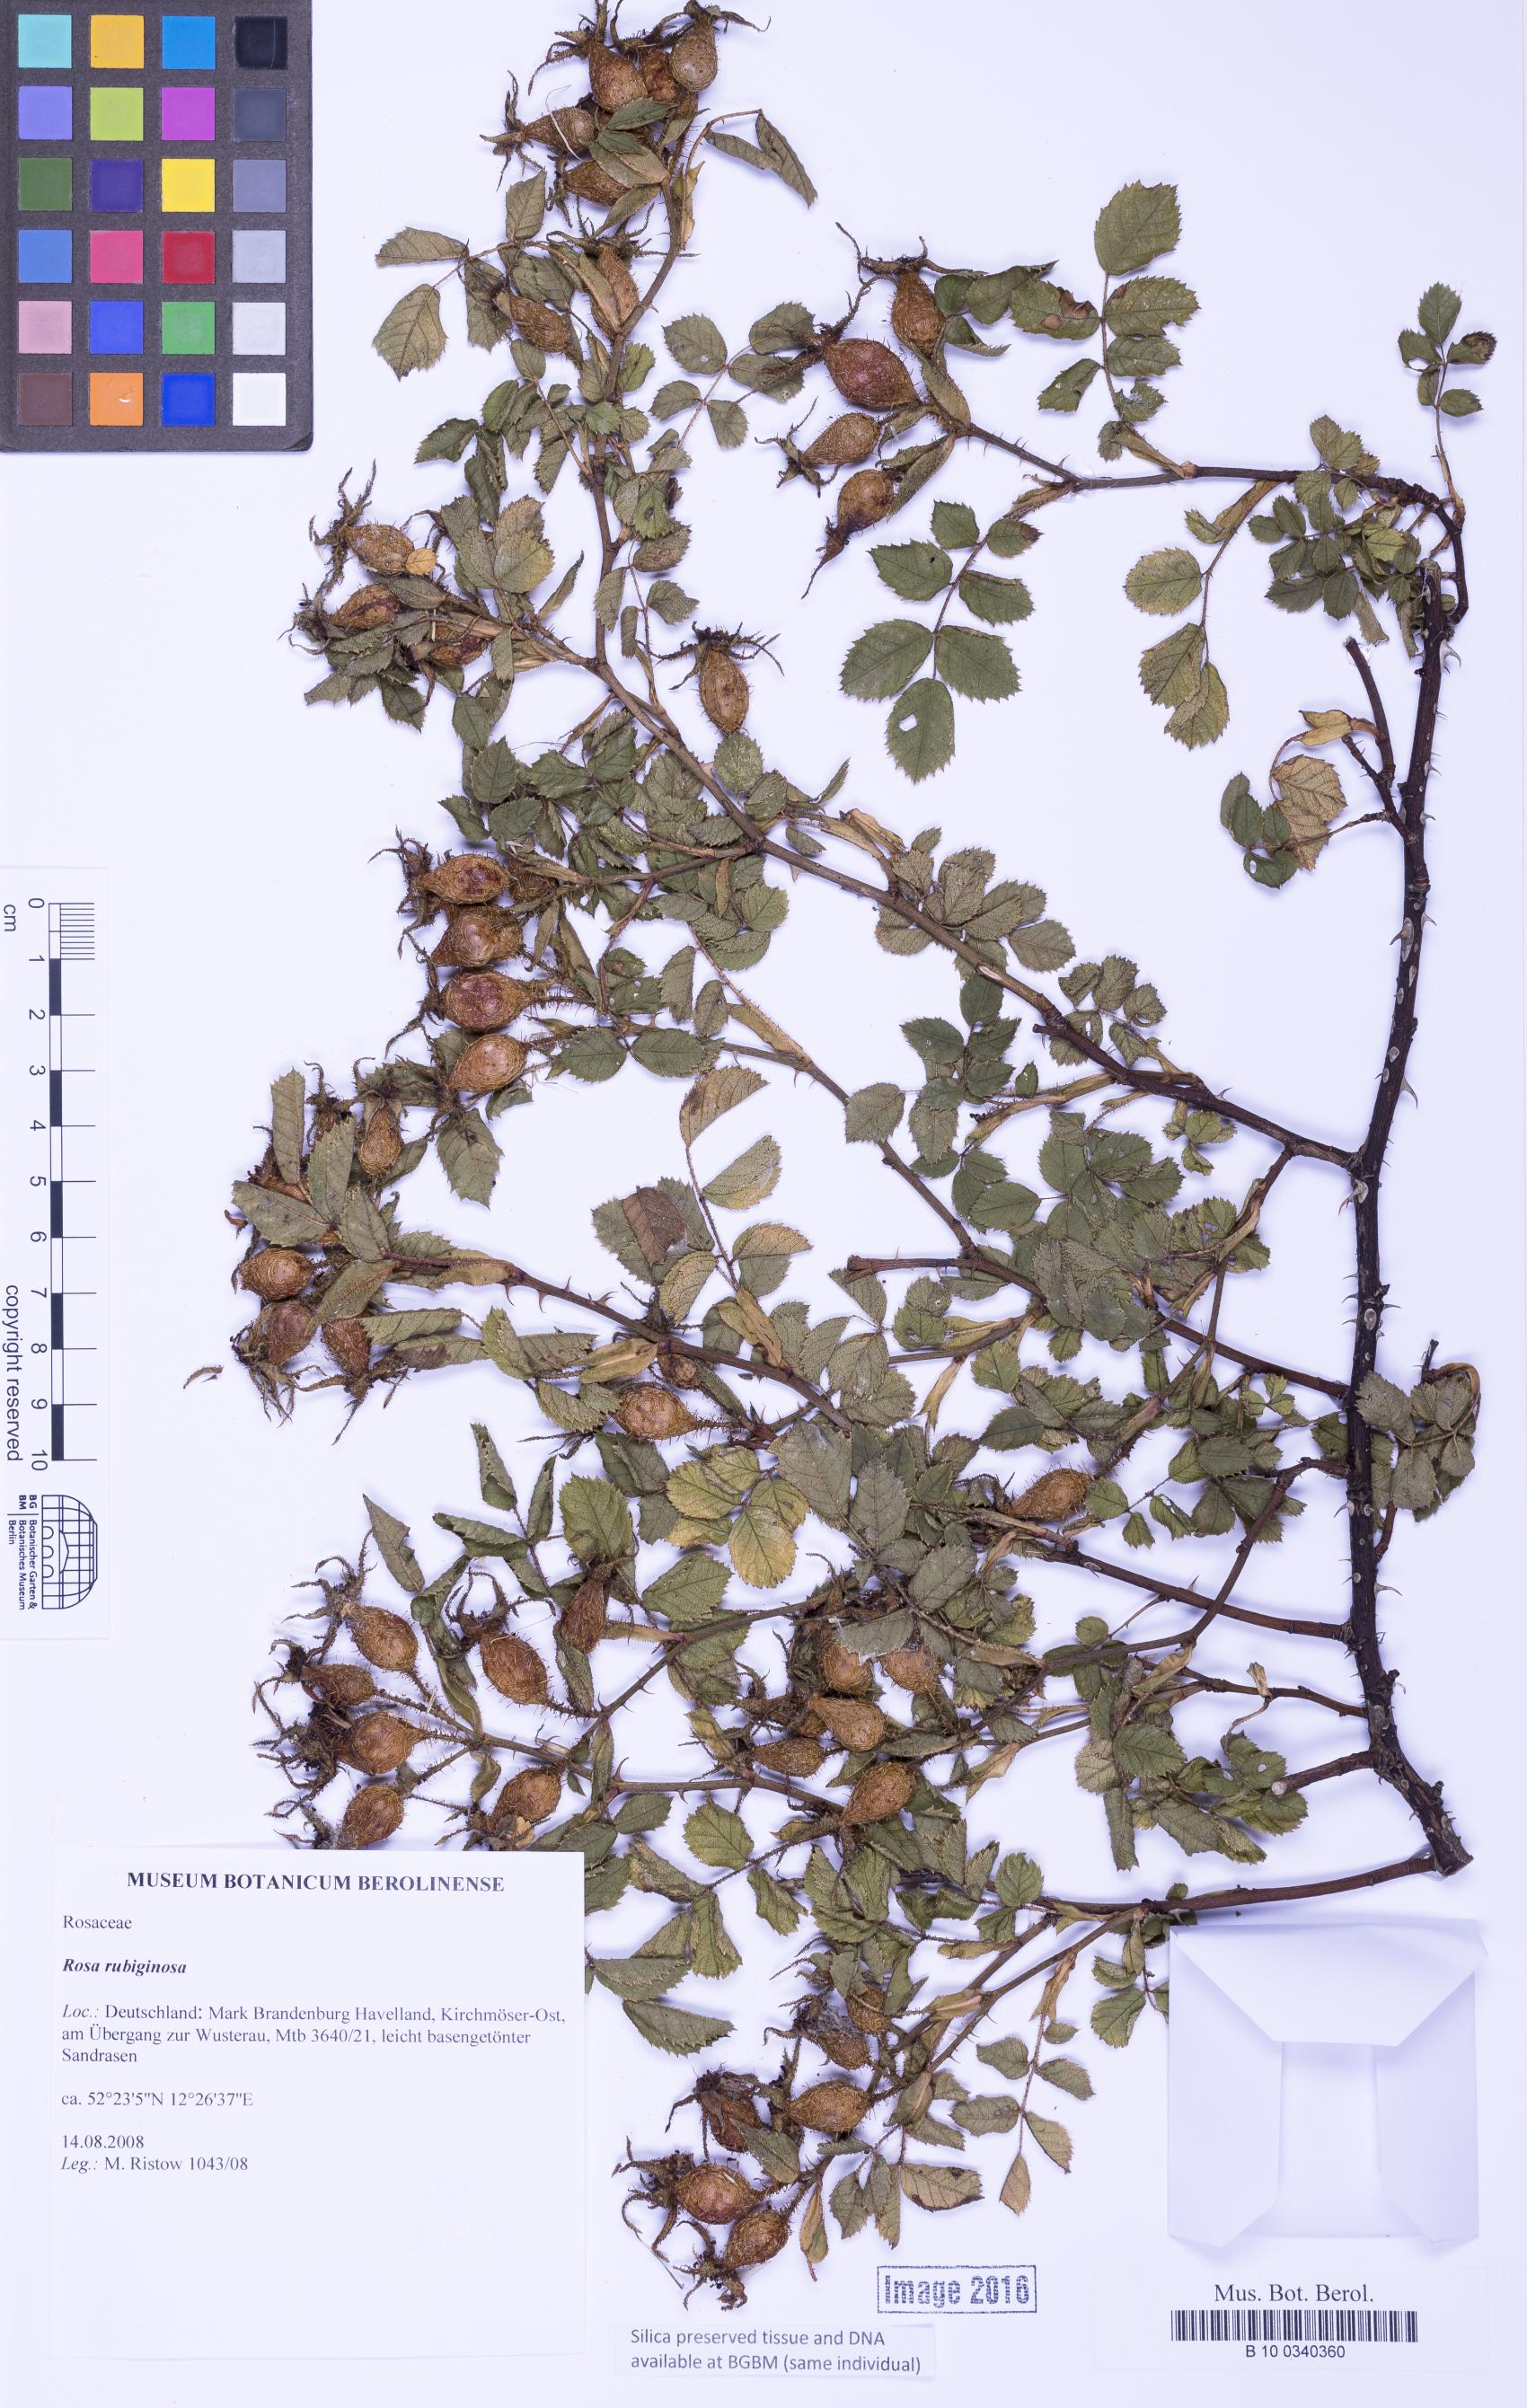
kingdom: Plantae
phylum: Tracheophyta
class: Magnoliopsida
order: Rosales
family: Rosaceae
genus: Rosa
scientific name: Rosa rubiginosa
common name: Sweet-briar
